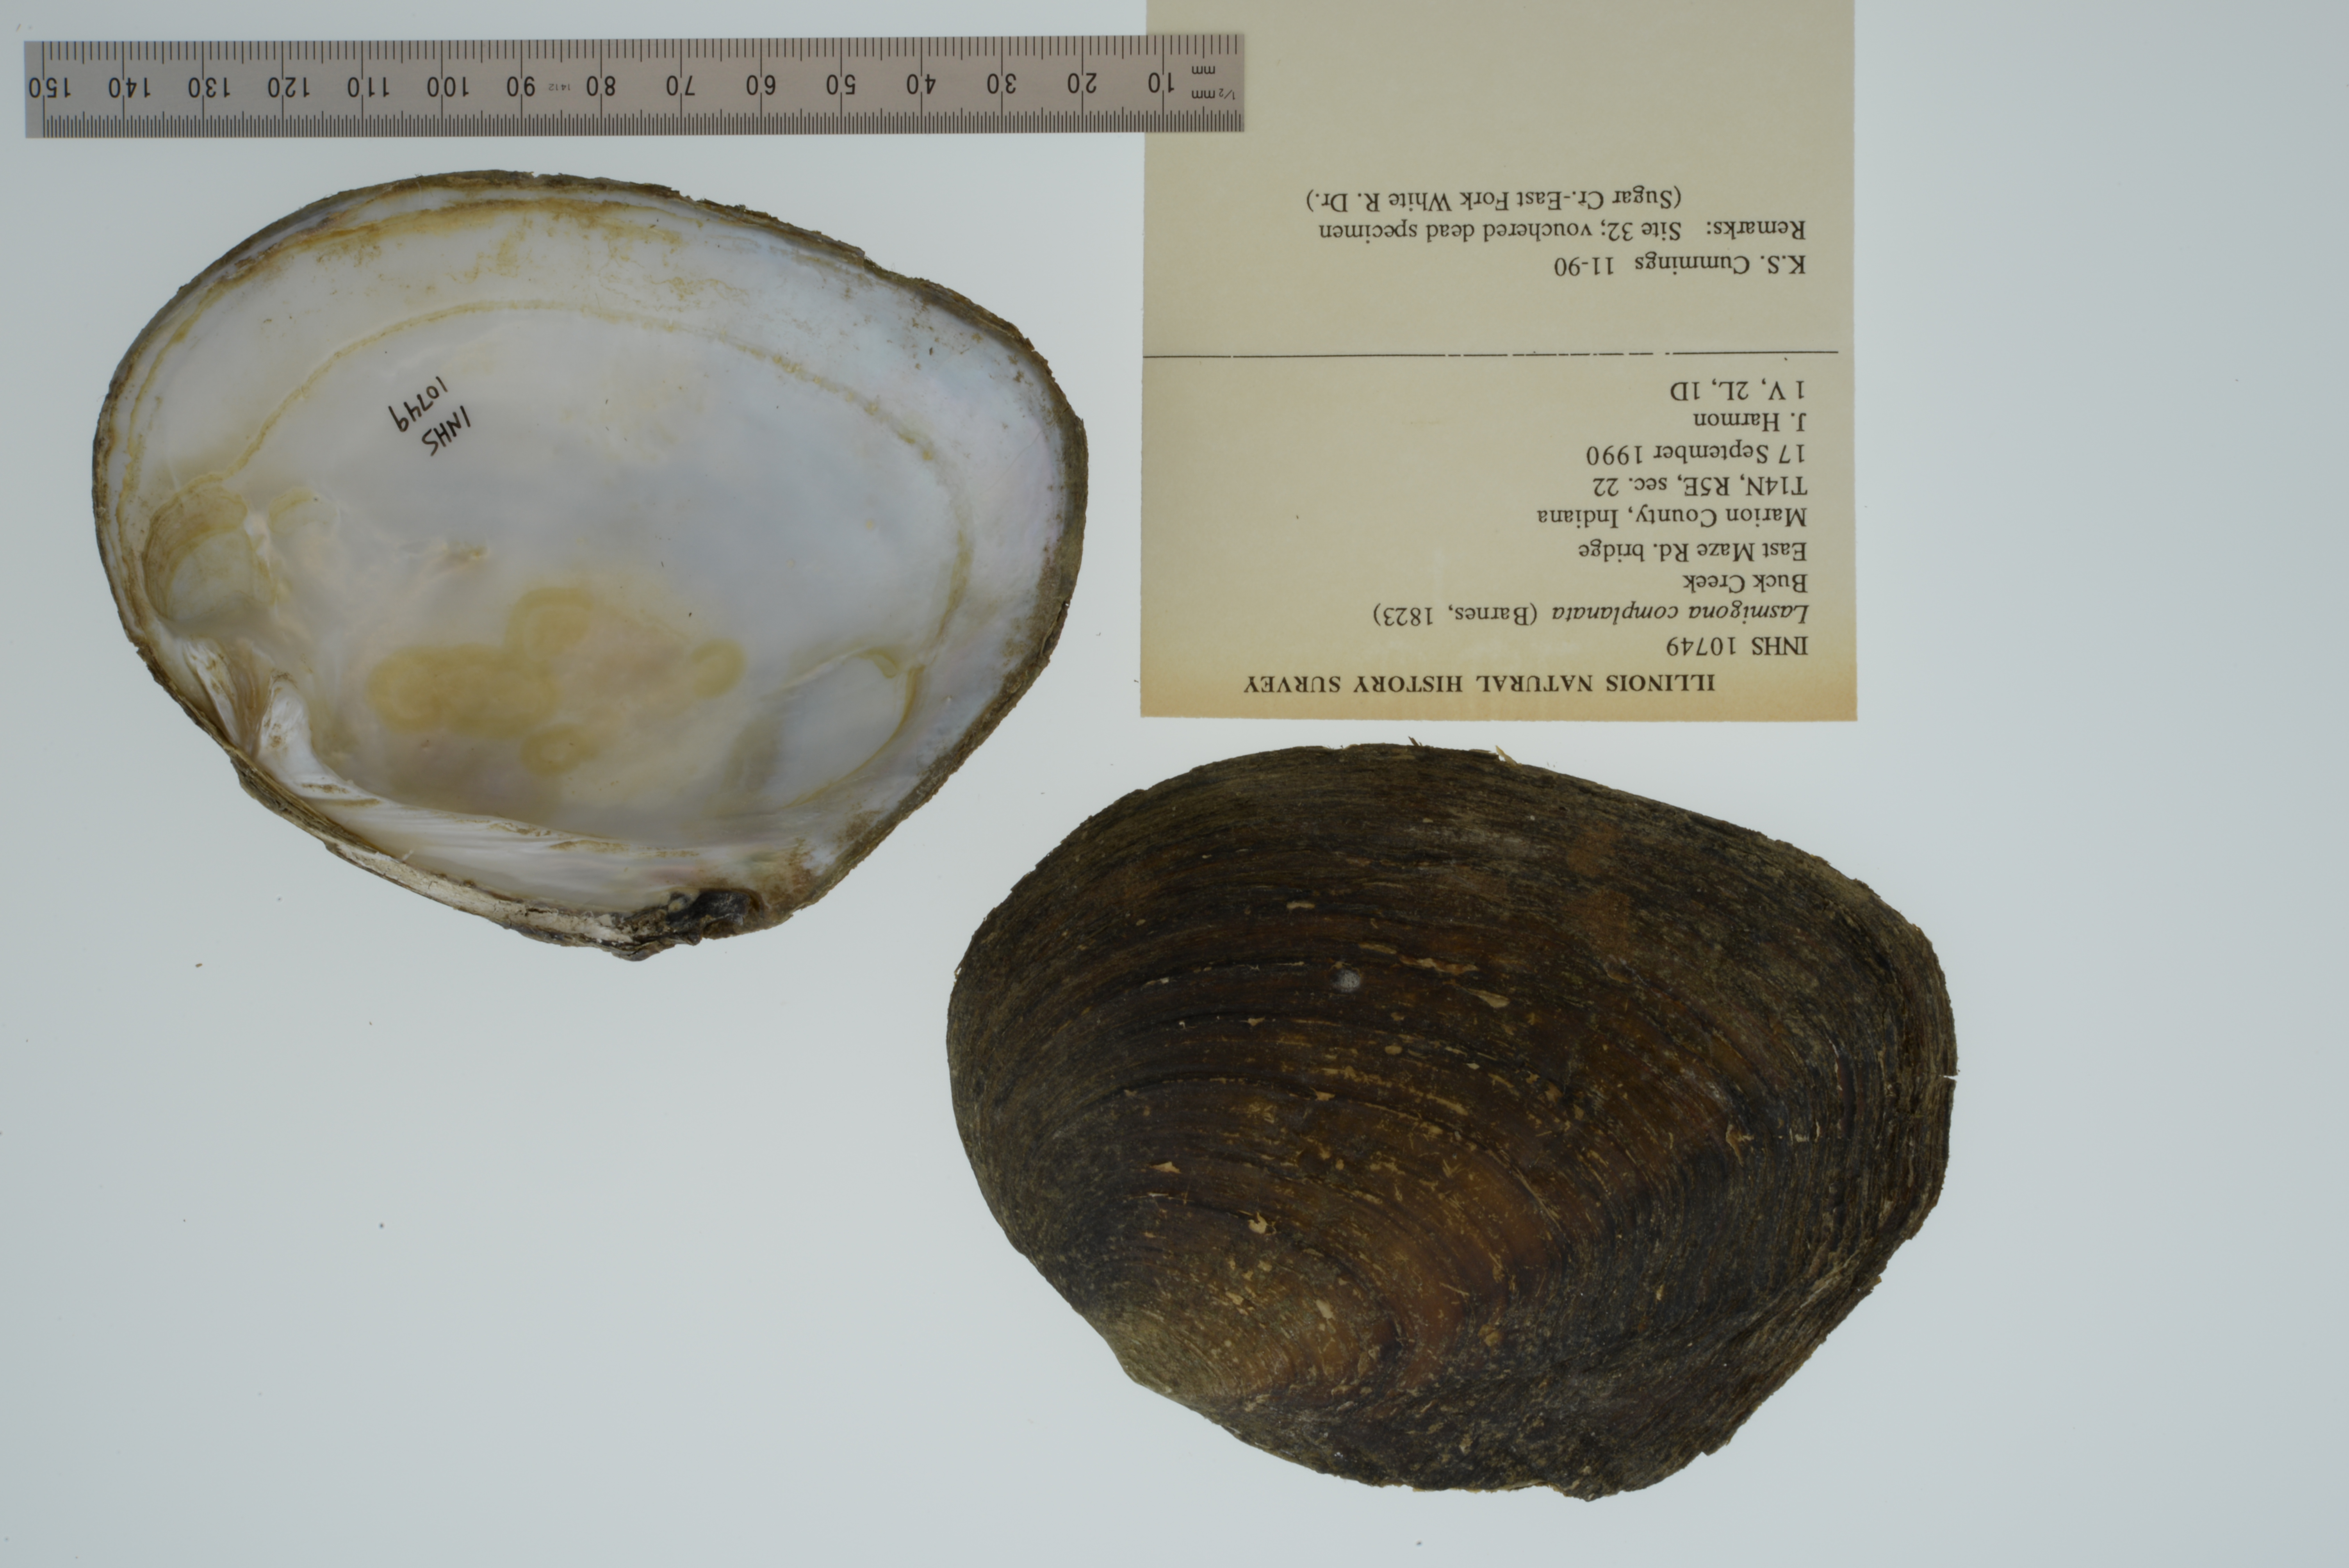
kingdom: Animalia
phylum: Mollusca
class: Bivalvia
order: Unionida
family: Unionidae
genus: Lasmigona
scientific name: Lasmigona complanata
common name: White heelsplitter
